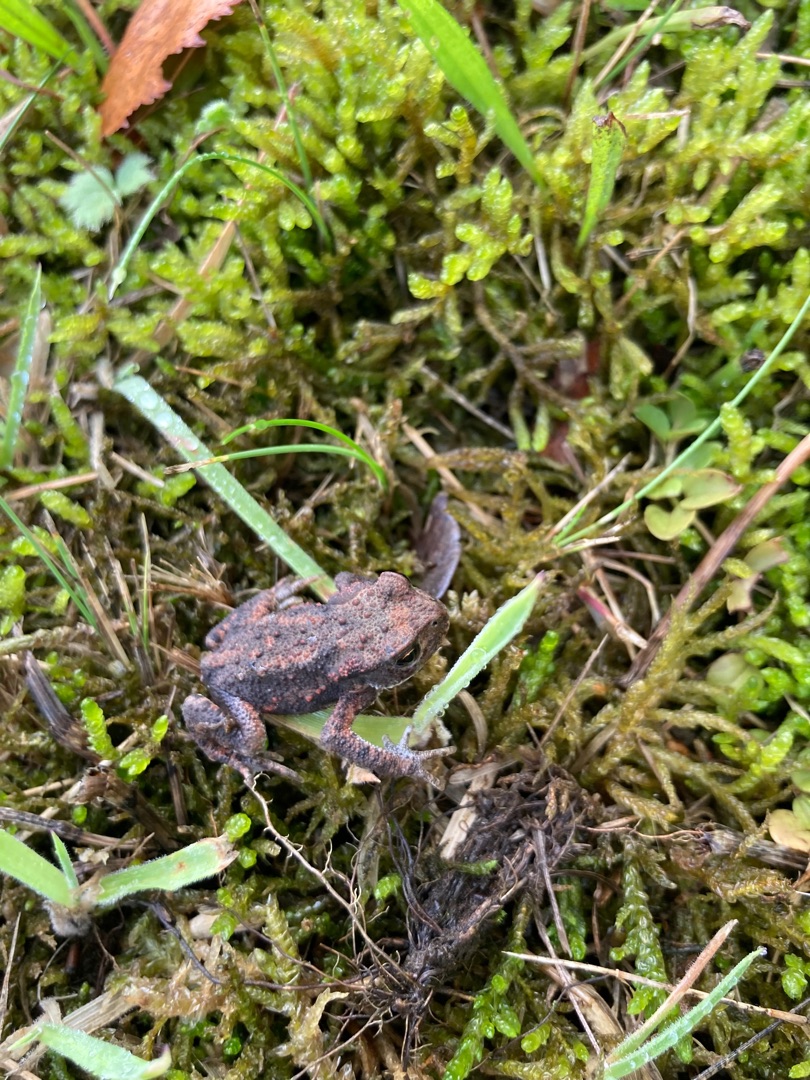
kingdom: Animalia
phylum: Chordata
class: Amphibia
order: Anura
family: Bufonidae
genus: Bufo
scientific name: Bufo bufo
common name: Skrubtudse
